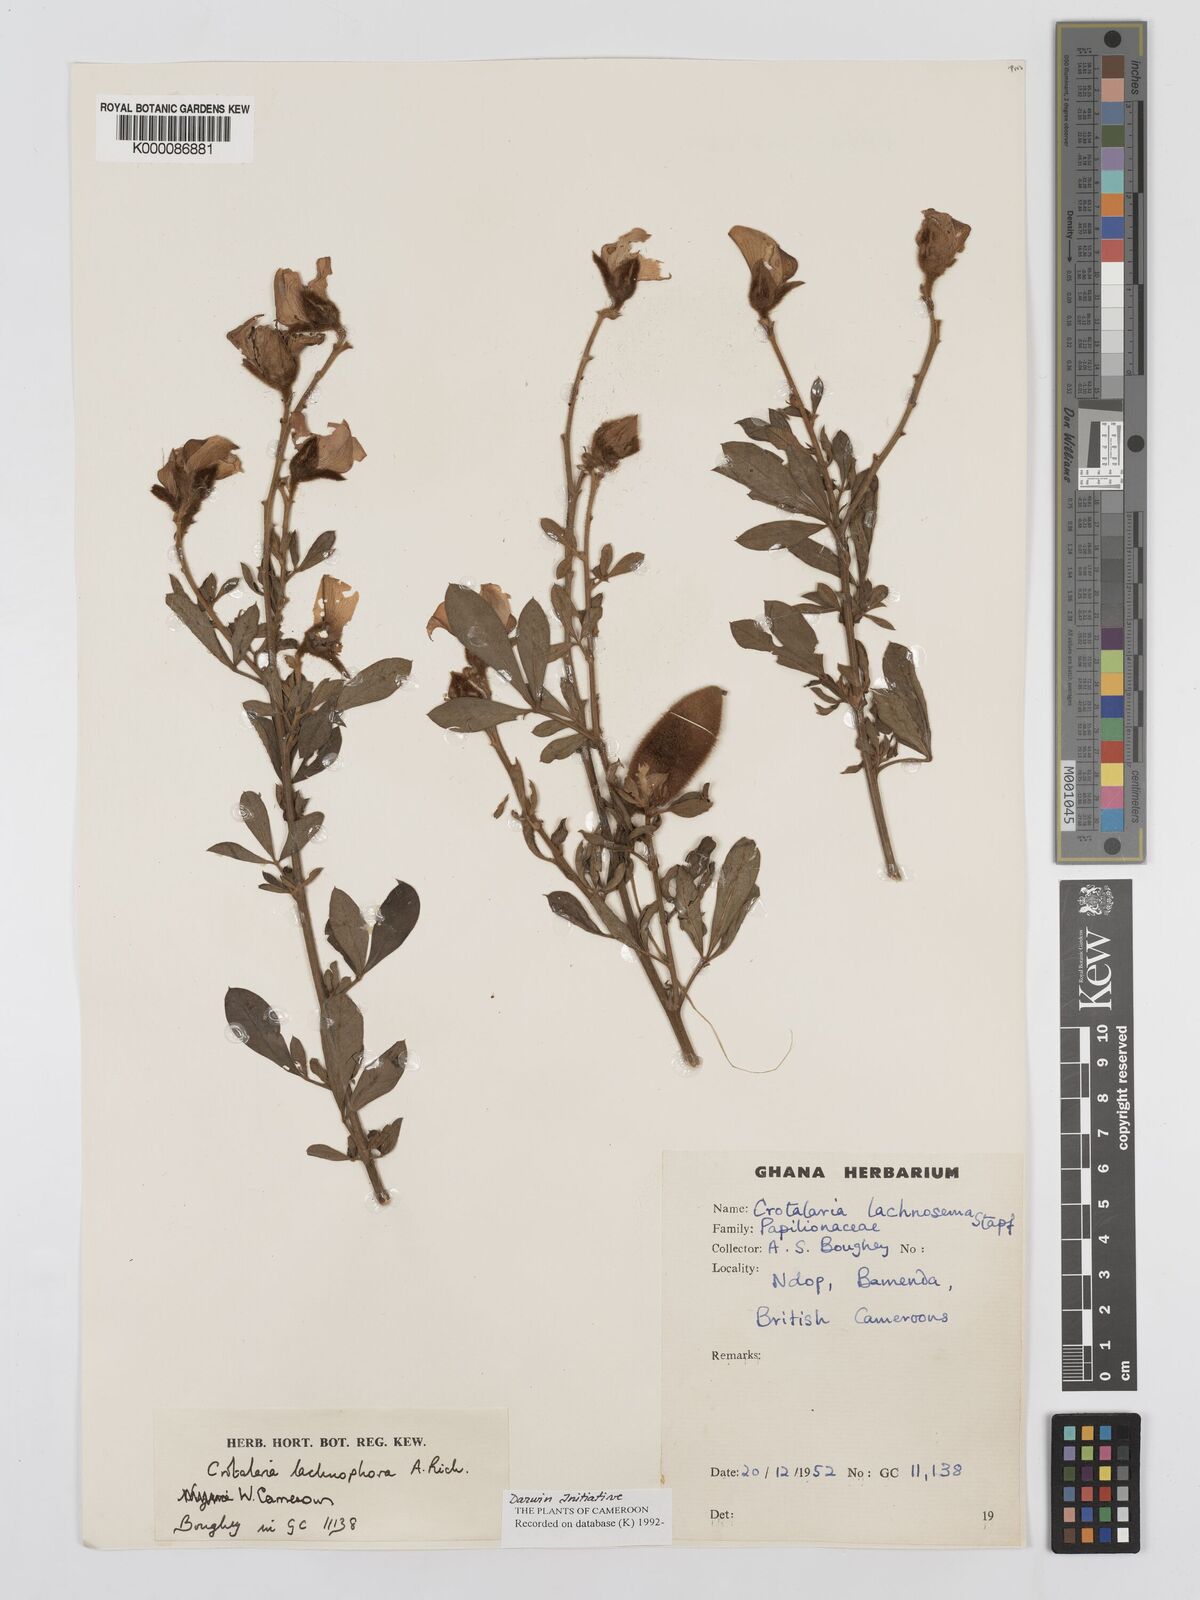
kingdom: Plantae
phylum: Tracheophyta
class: Magnoliopsida
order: Fabales
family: Fabaceae
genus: Crotalaria
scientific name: Crotalaria lachnophora
